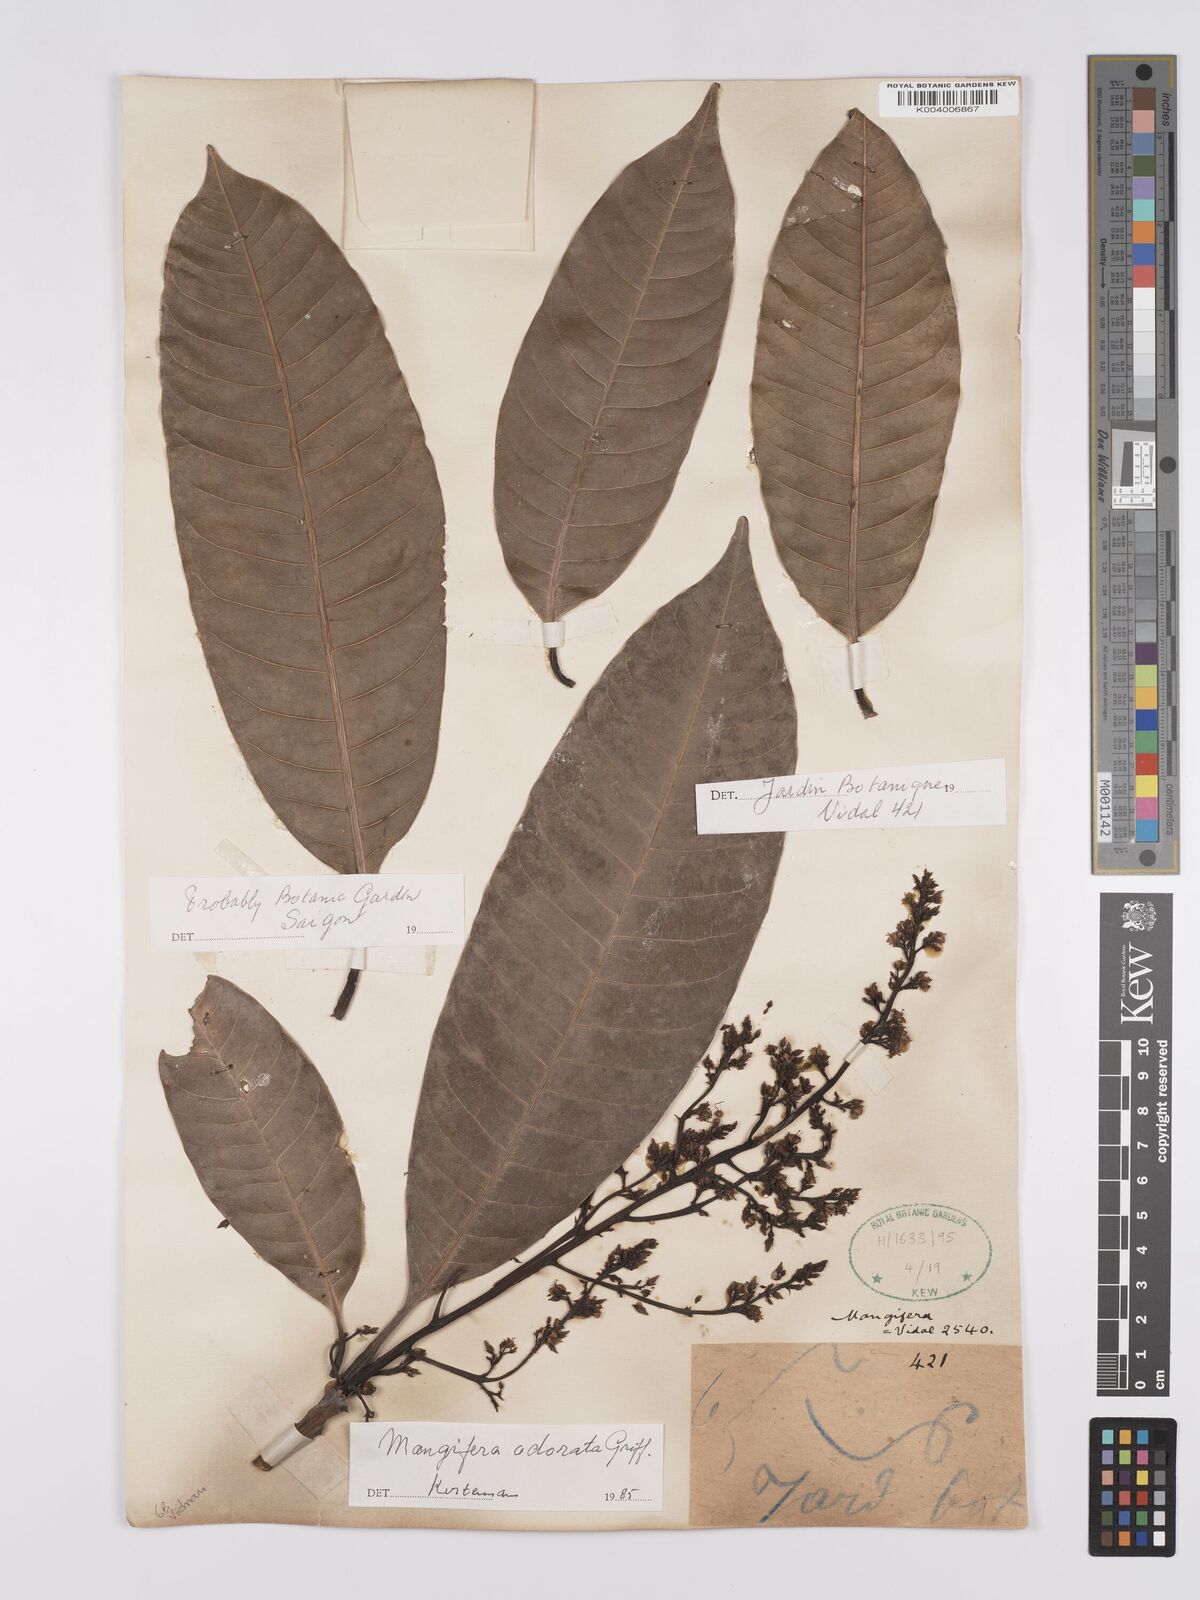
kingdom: Plantae
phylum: Tracheophyta
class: Magnoliopsida
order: Sapindales
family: Anacardiaceae
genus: Mangifera
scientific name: Mangifera odorata
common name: Saipan mango
